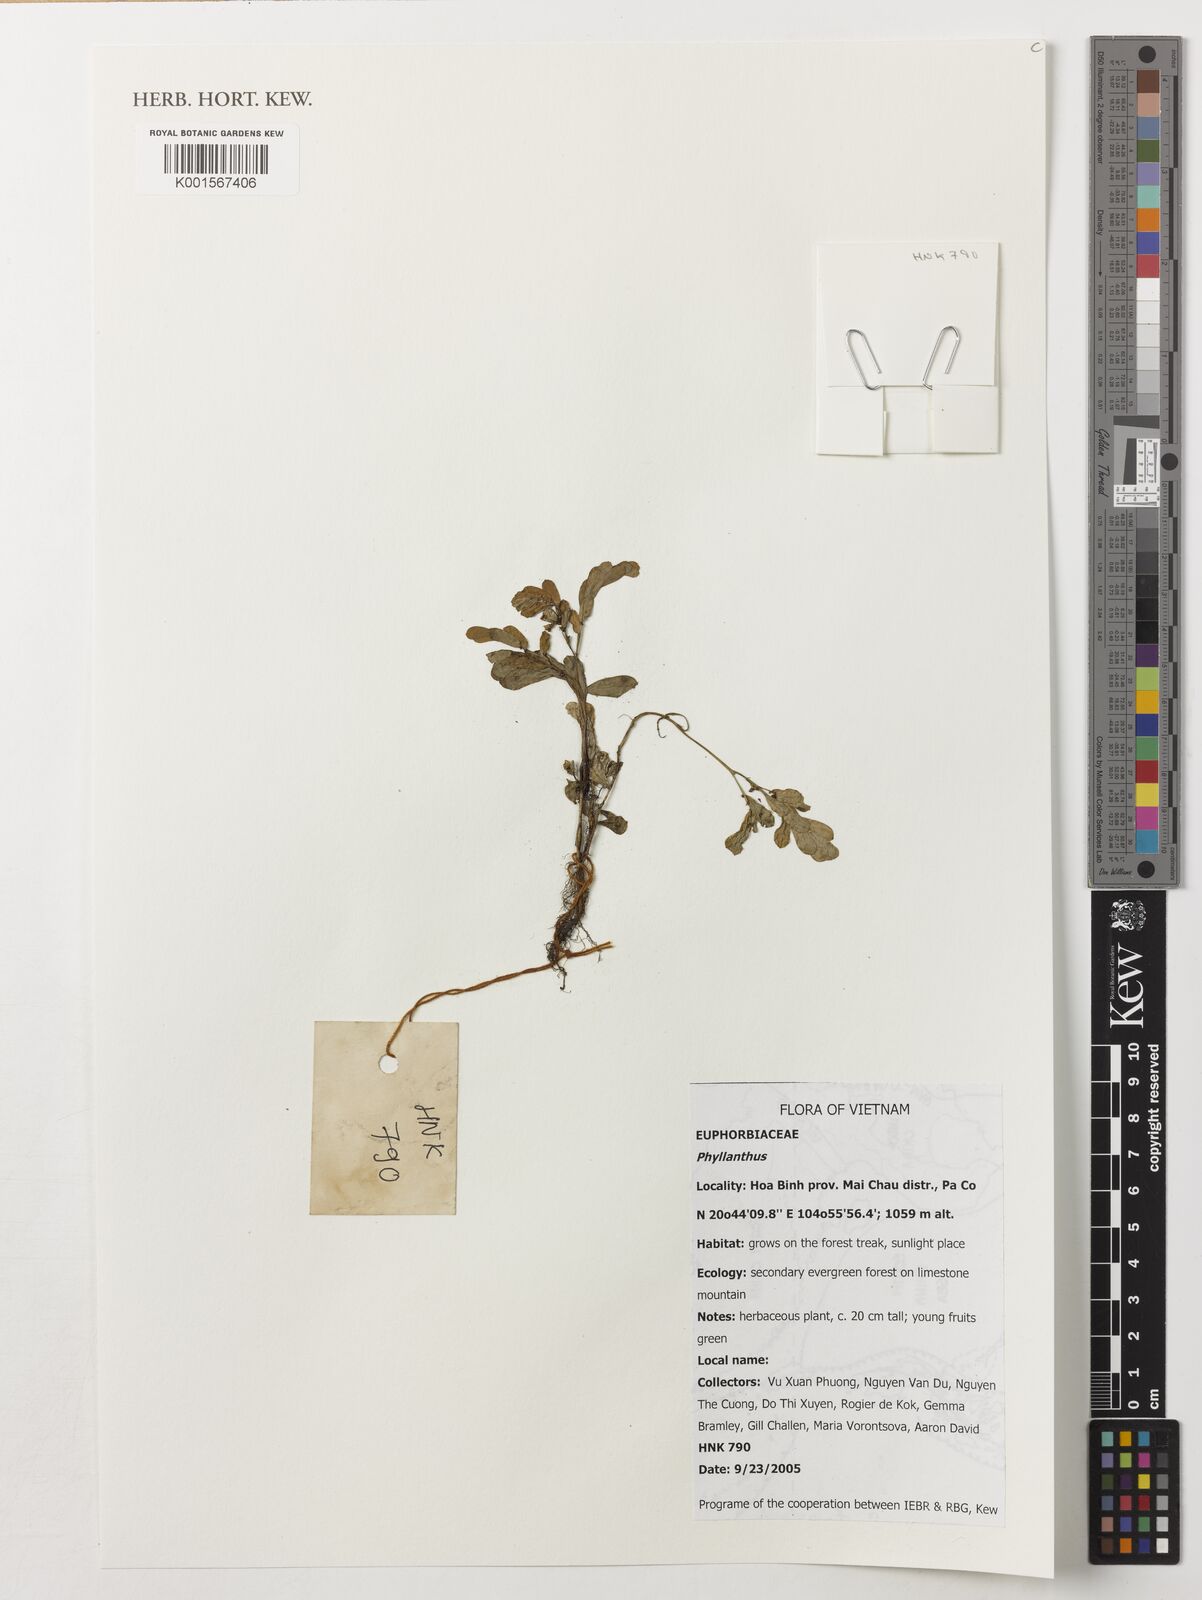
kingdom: Plantae
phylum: Tracheophyta
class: Magnoliopsida
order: Malpighiales
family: Phyllanthaceae
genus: Phyllanthus
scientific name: Phyllanthus
